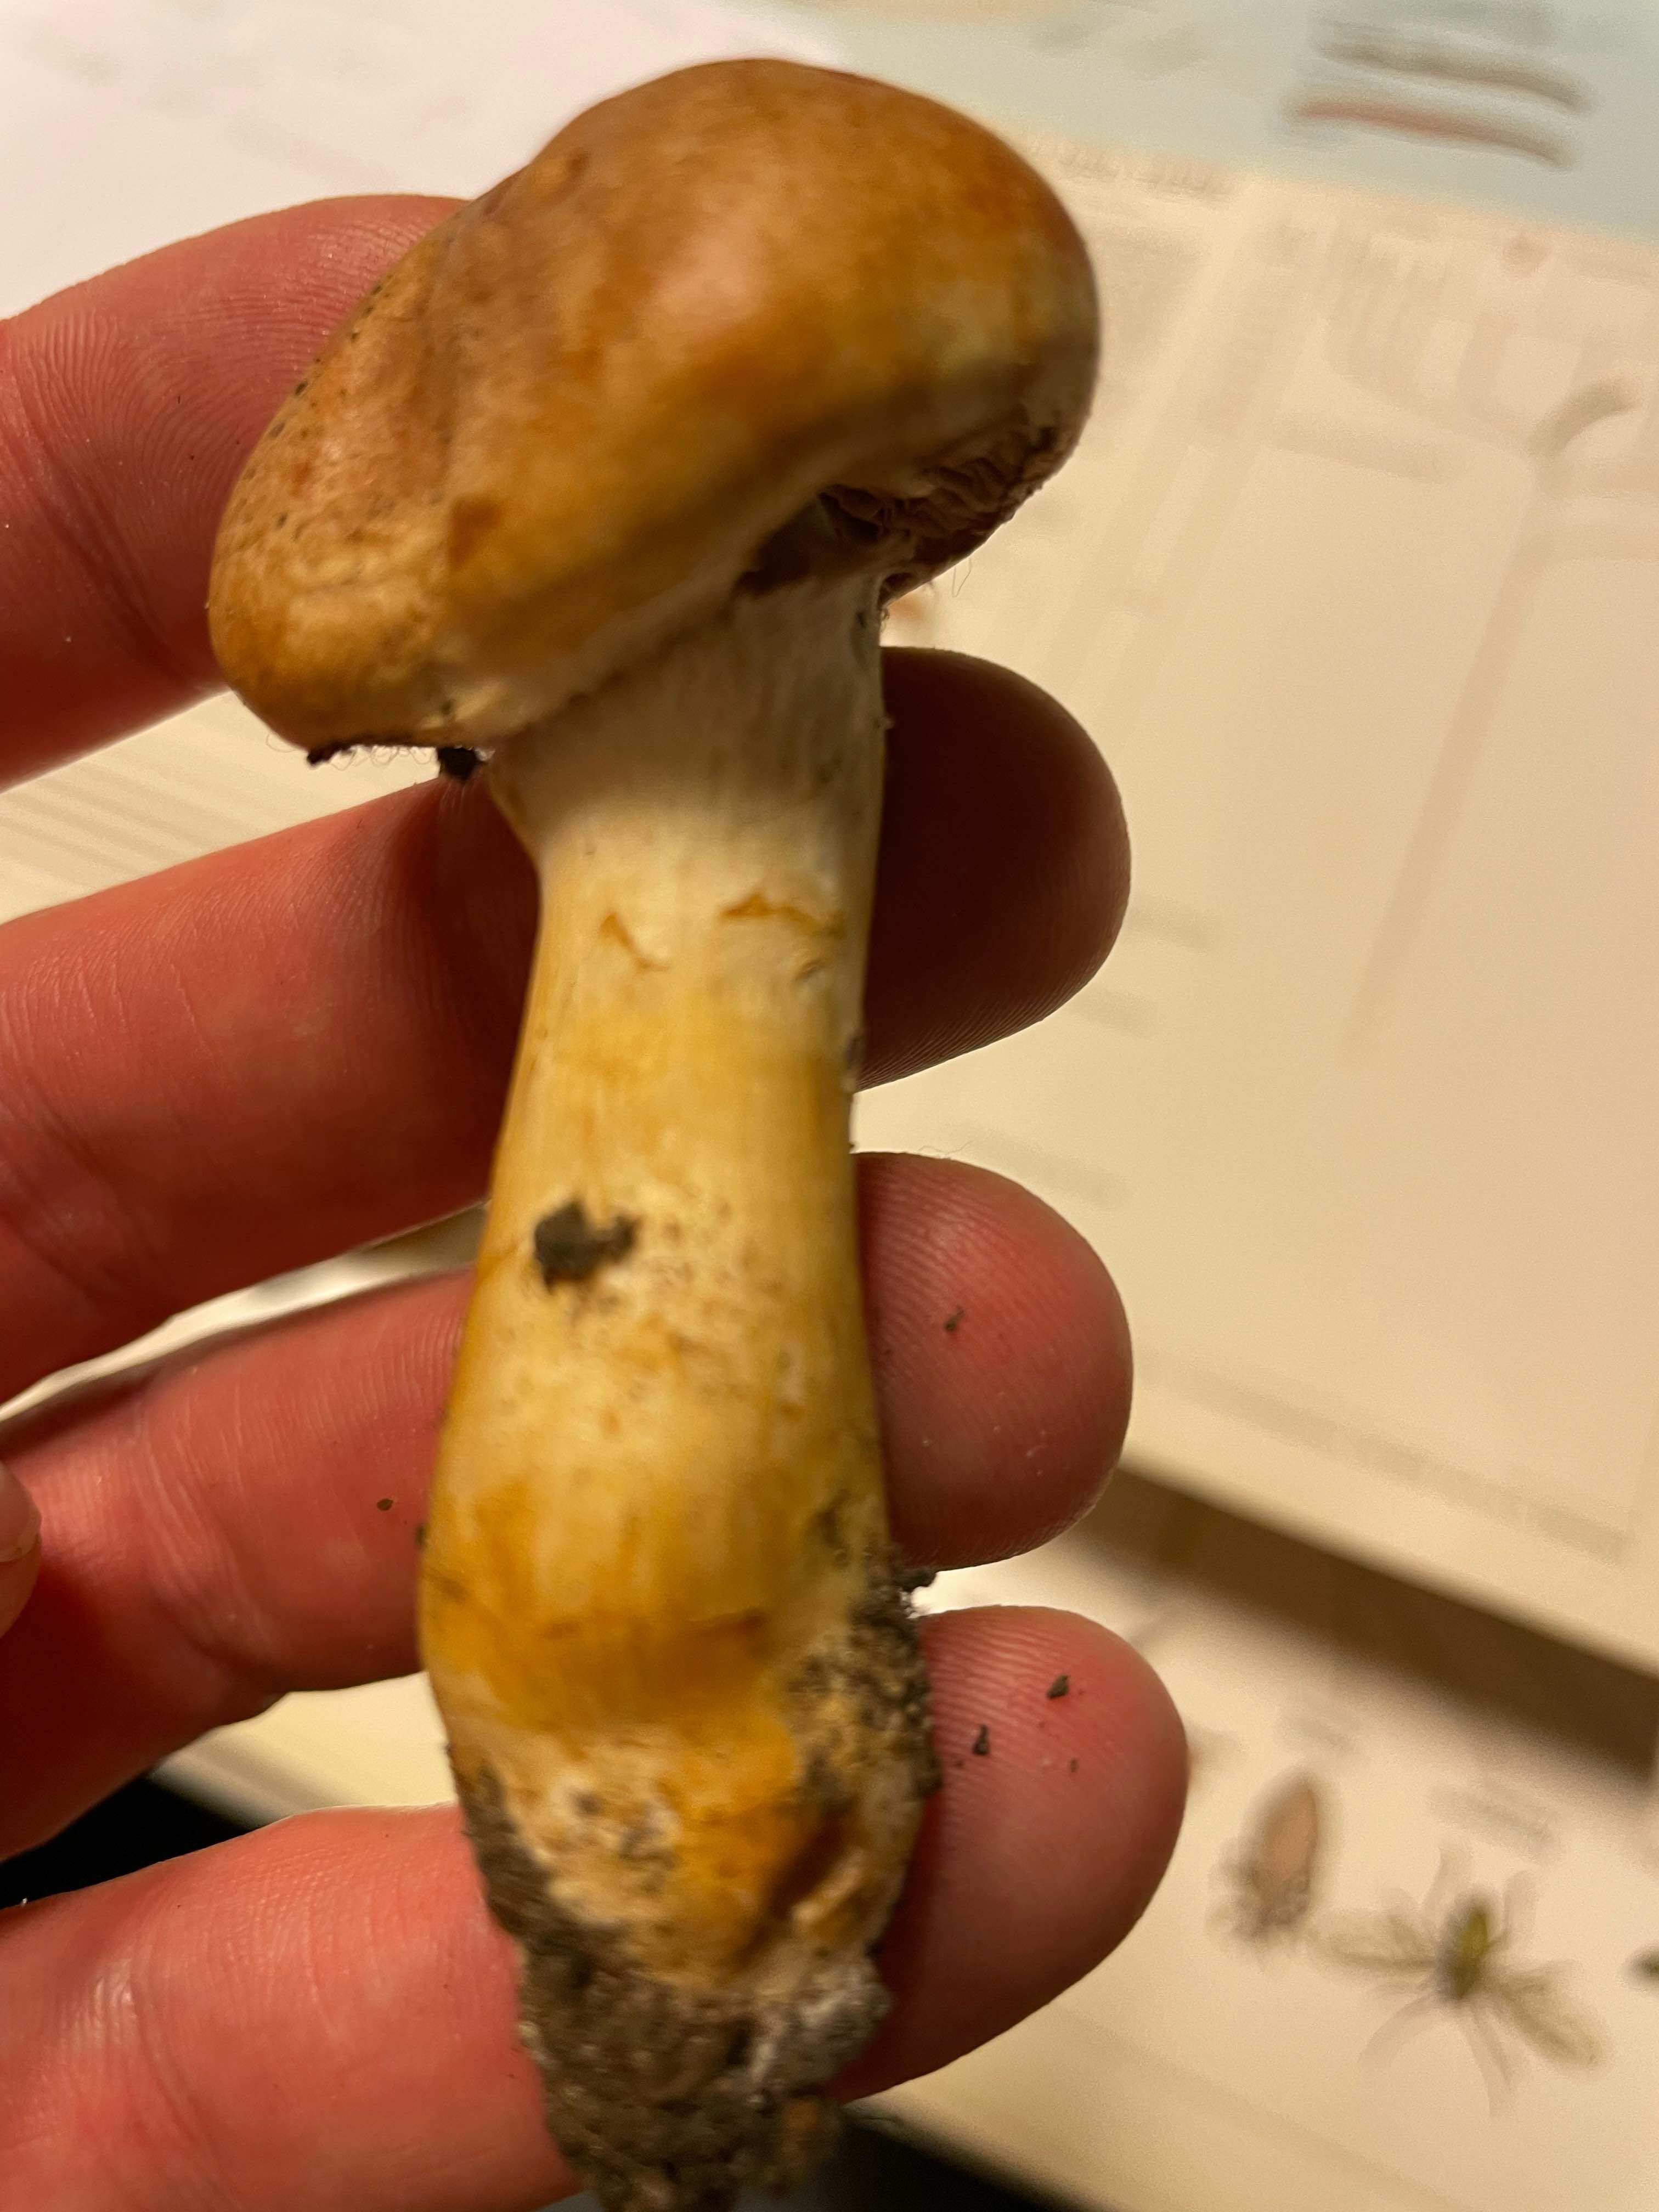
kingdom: Fungi
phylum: Basidiomycota
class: Agaricomycetes
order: Agaricales
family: Cortinariaceae
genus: Cortinarius
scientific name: Cortinarius
